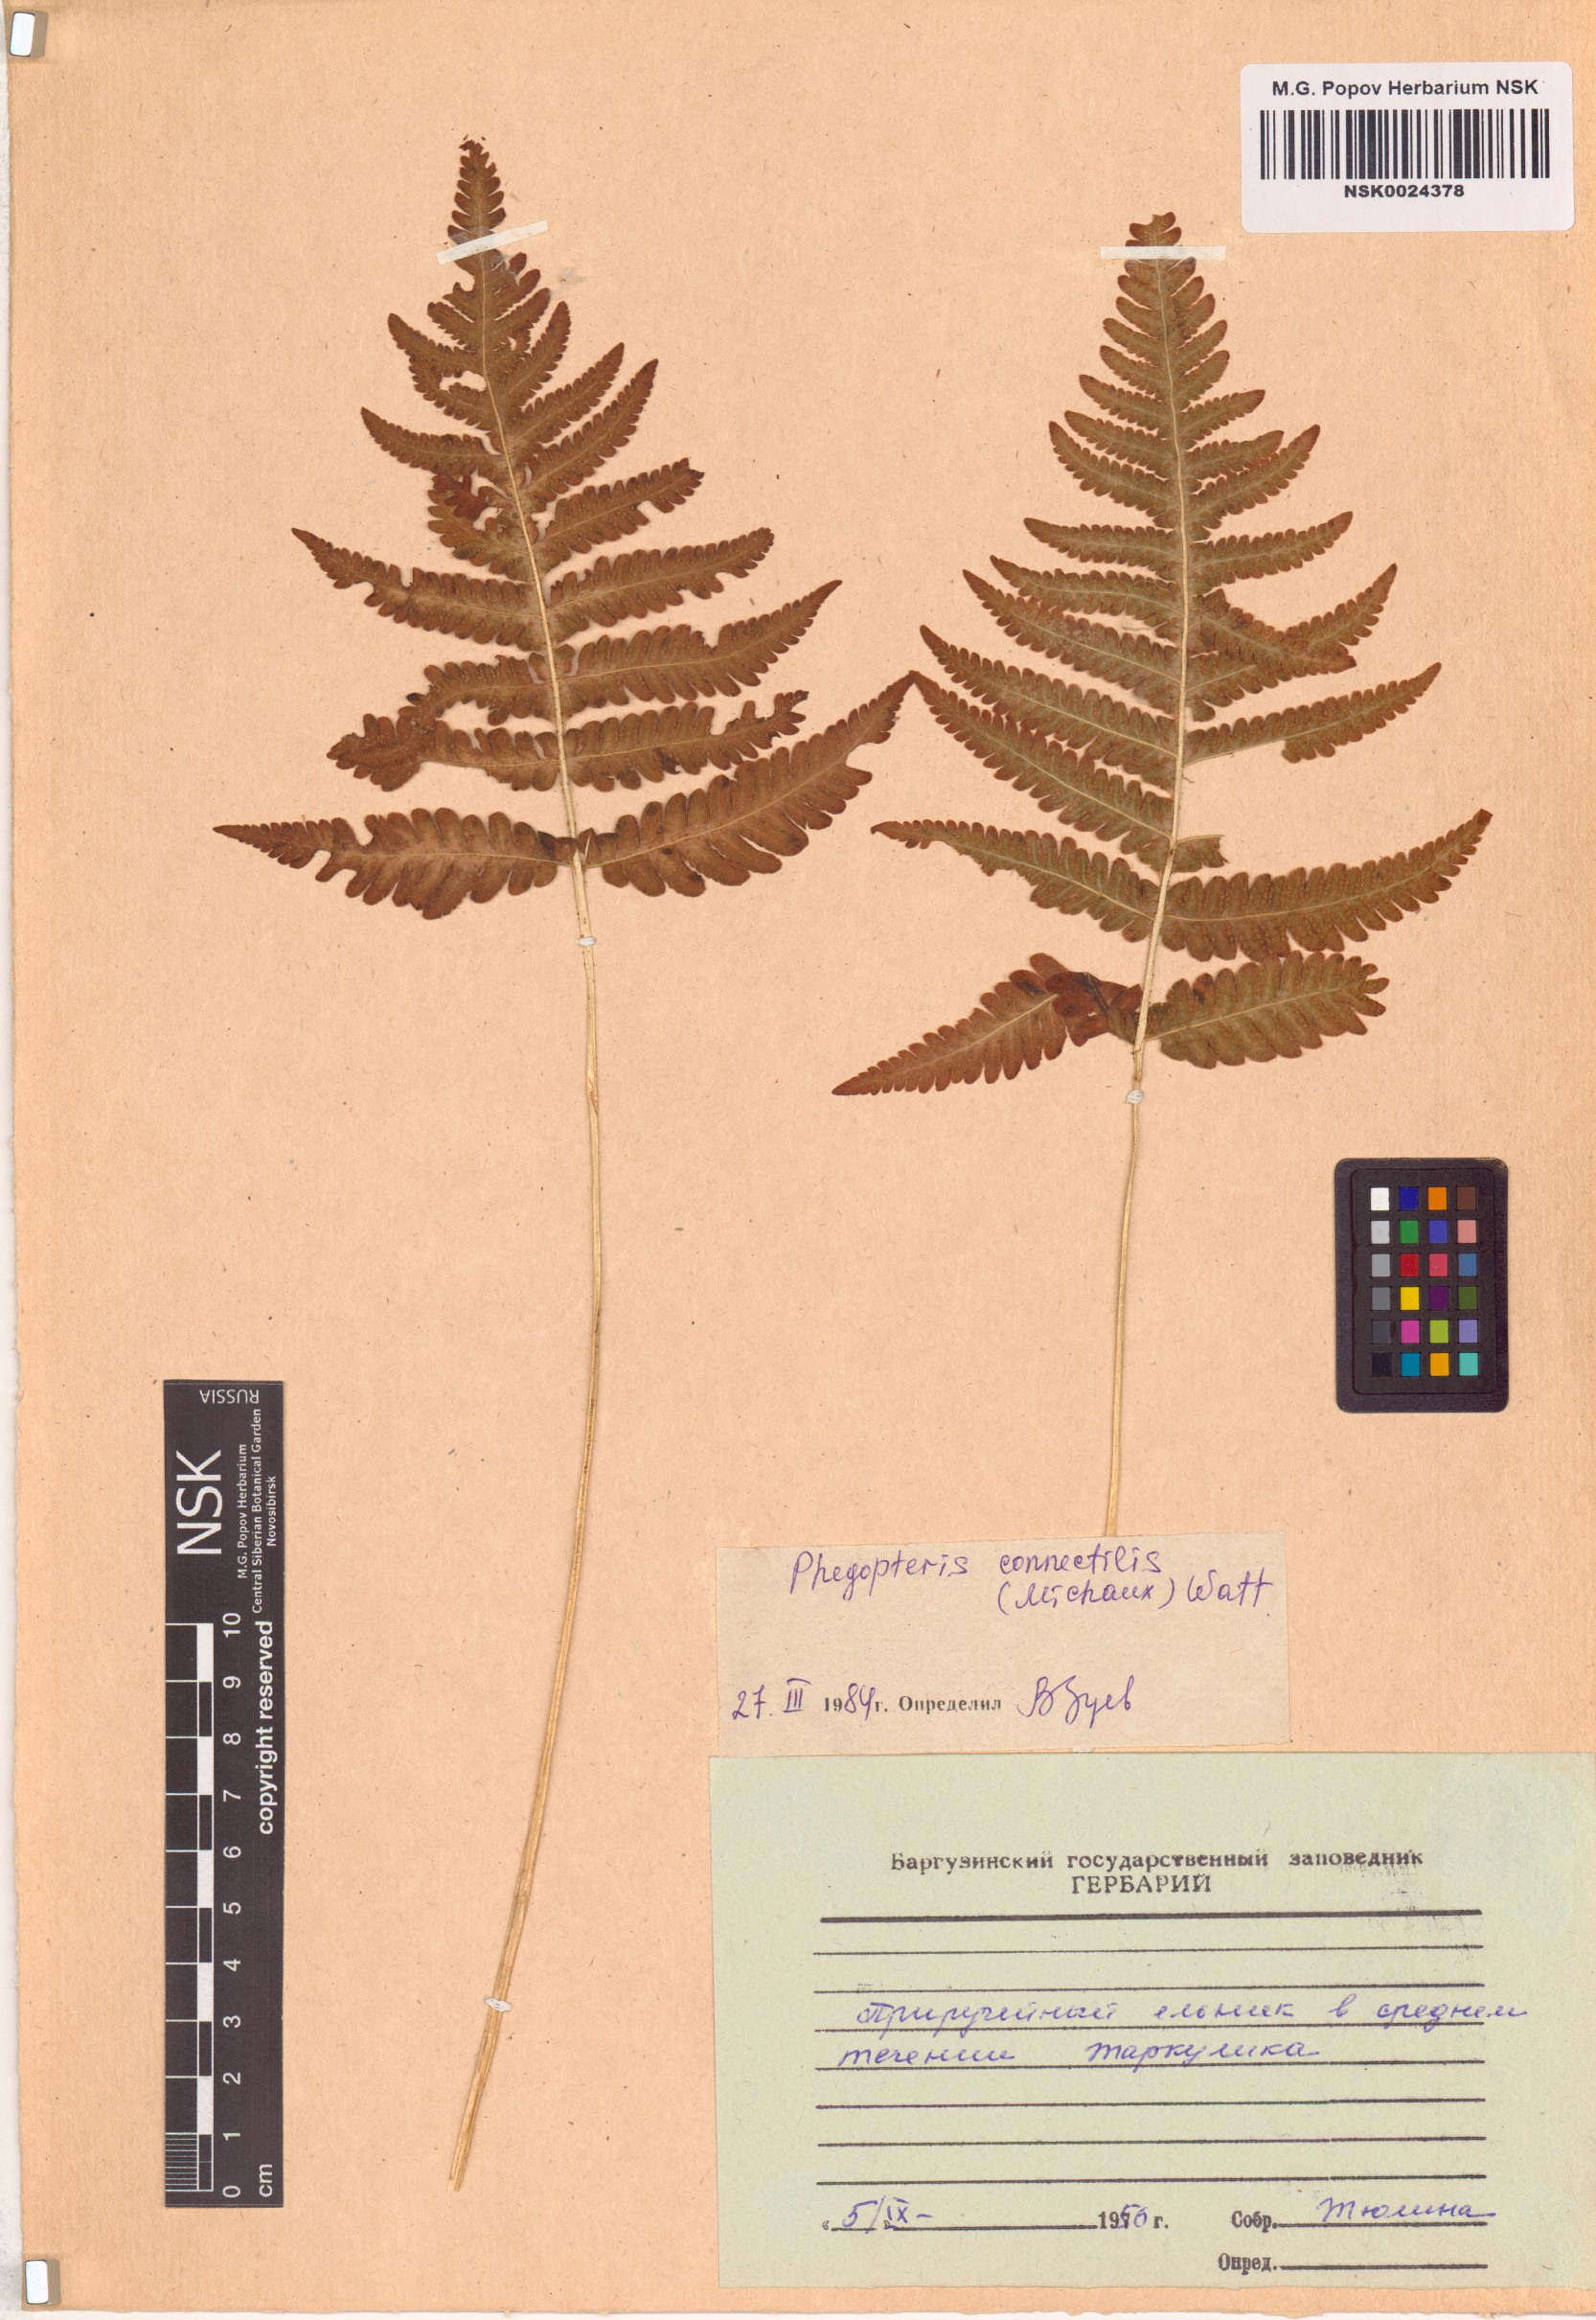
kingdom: Plantae
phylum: Tracheophyta
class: Polypodiopsida
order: Polypodiales
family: Thelypteridaceae
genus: Phegopteris
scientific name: Phegopteris connectilis
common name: Beech fern
